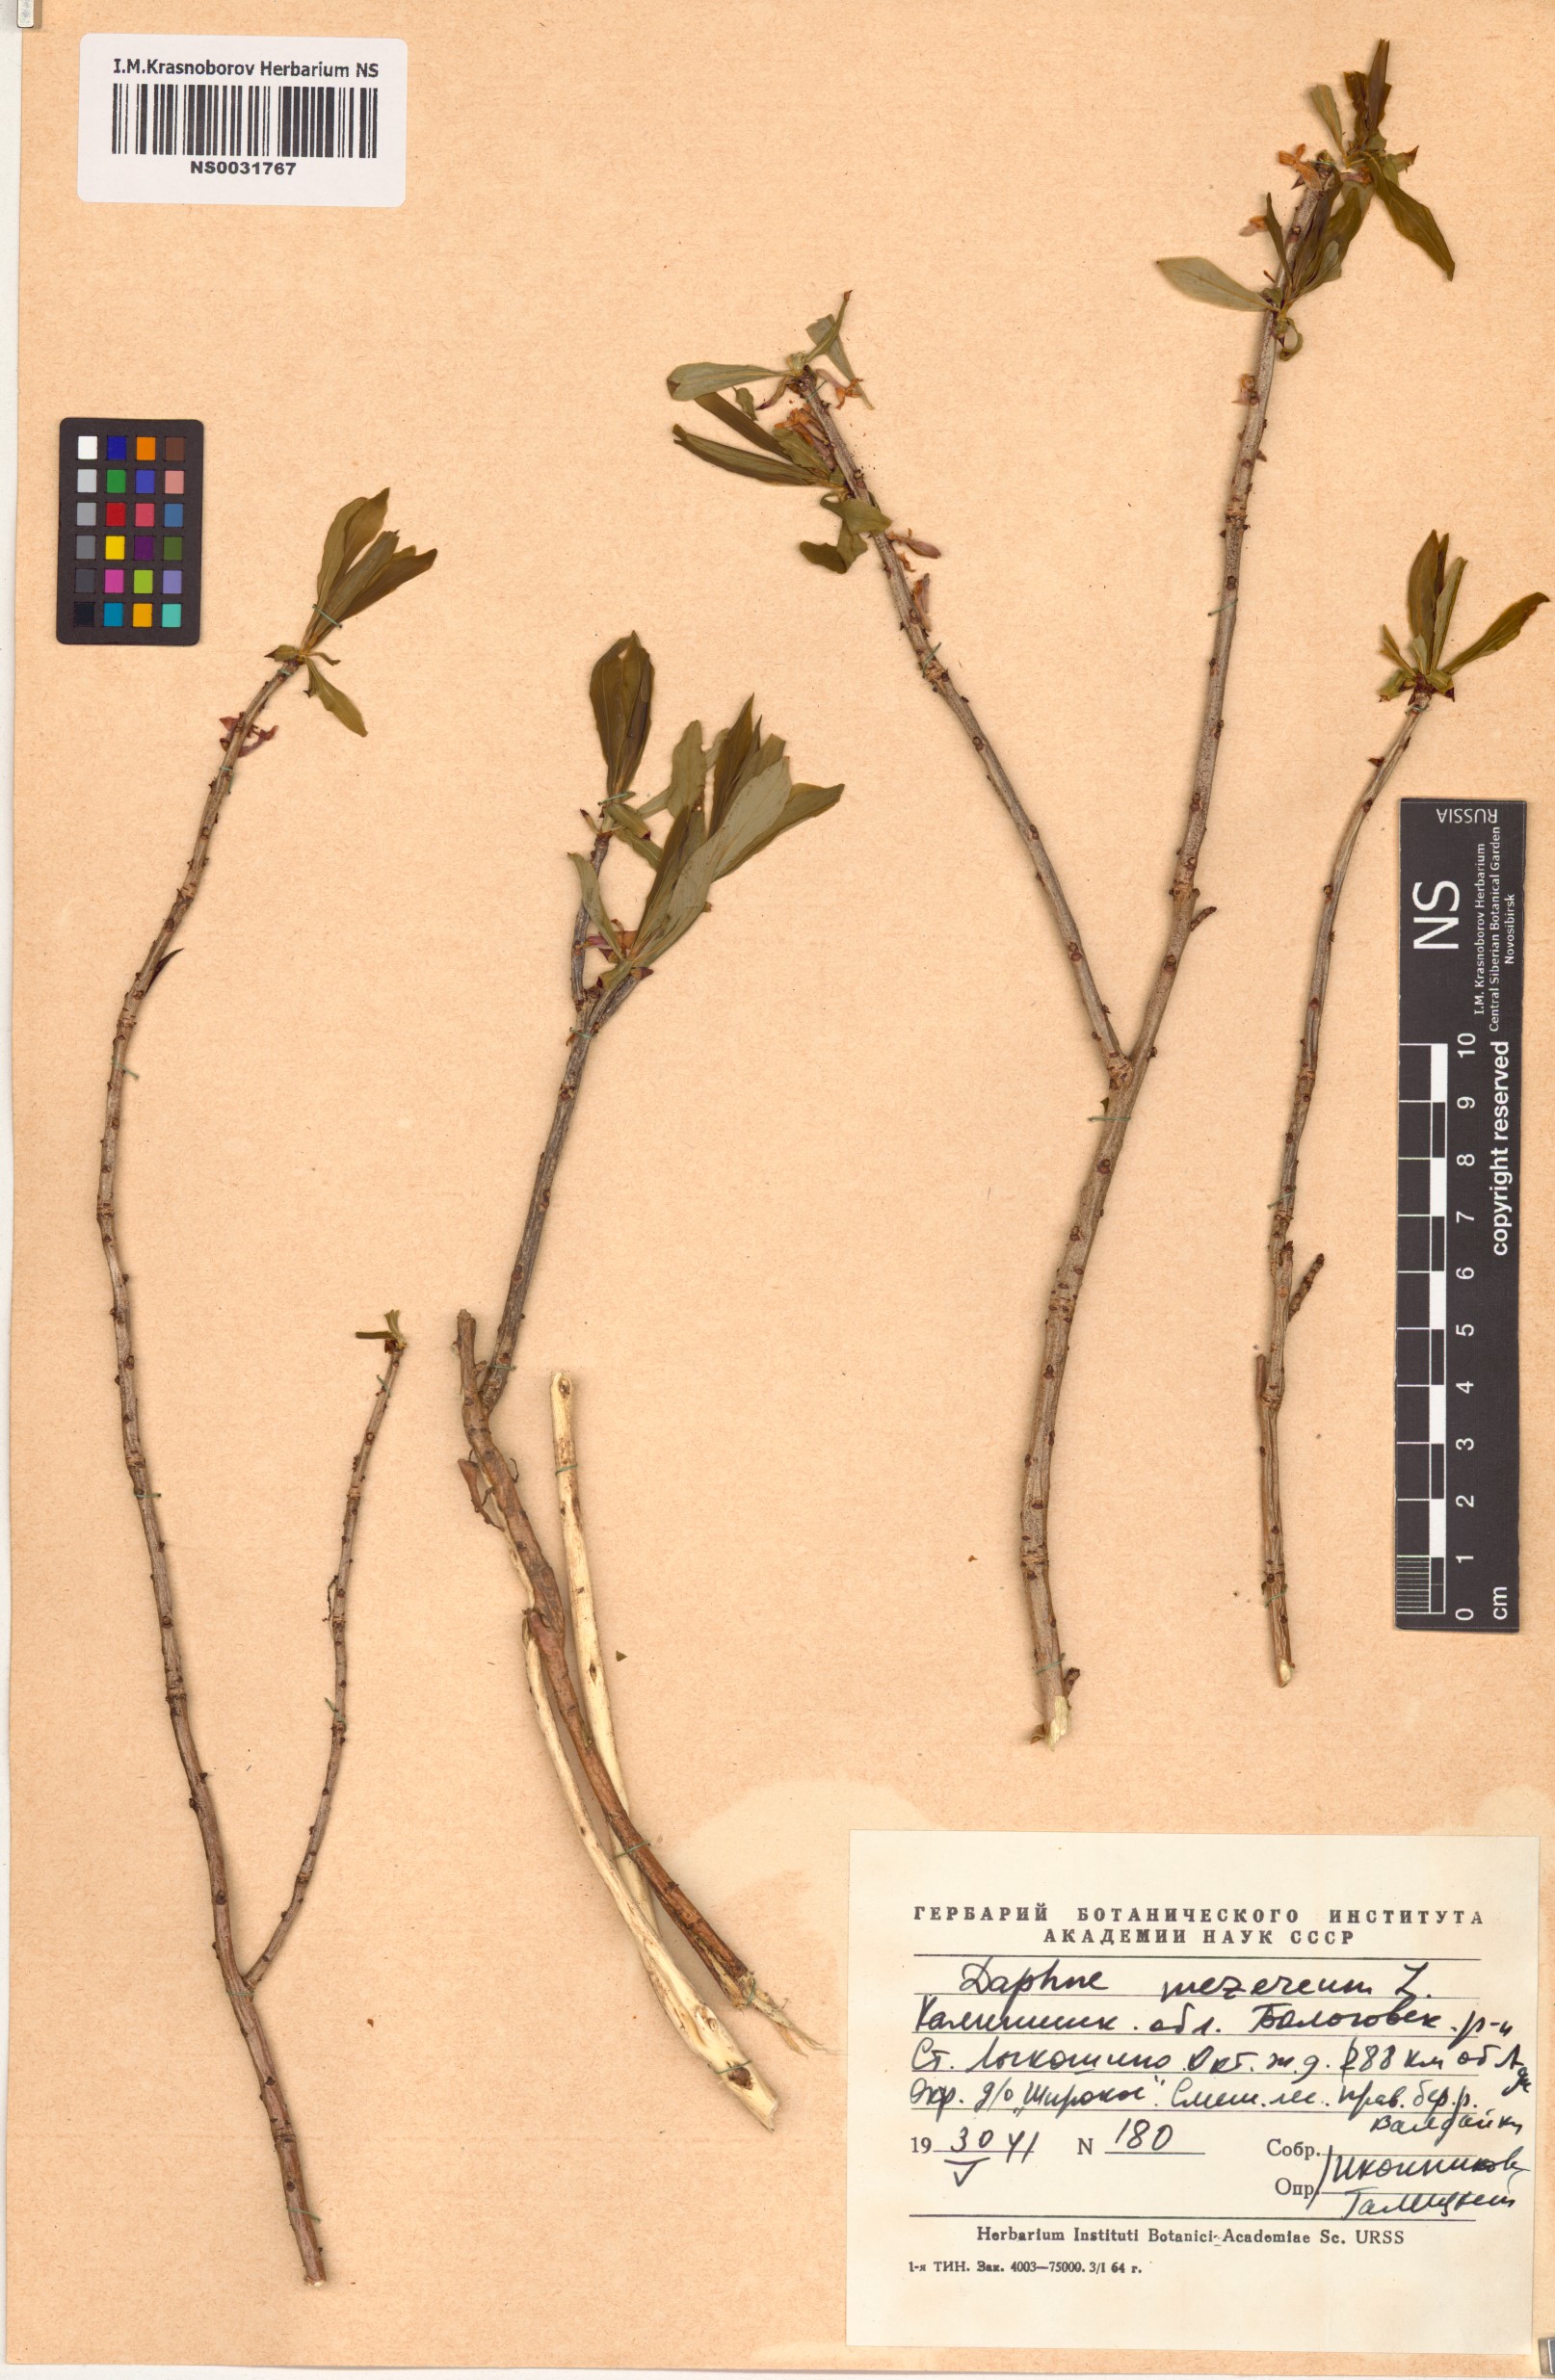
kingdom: Plantae
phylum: Tracheophyta
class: Magnoliopsida
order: Malvales
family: Thymelaeaceae
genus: Daphne
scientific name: Daphne mezereum
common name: Mezereon
